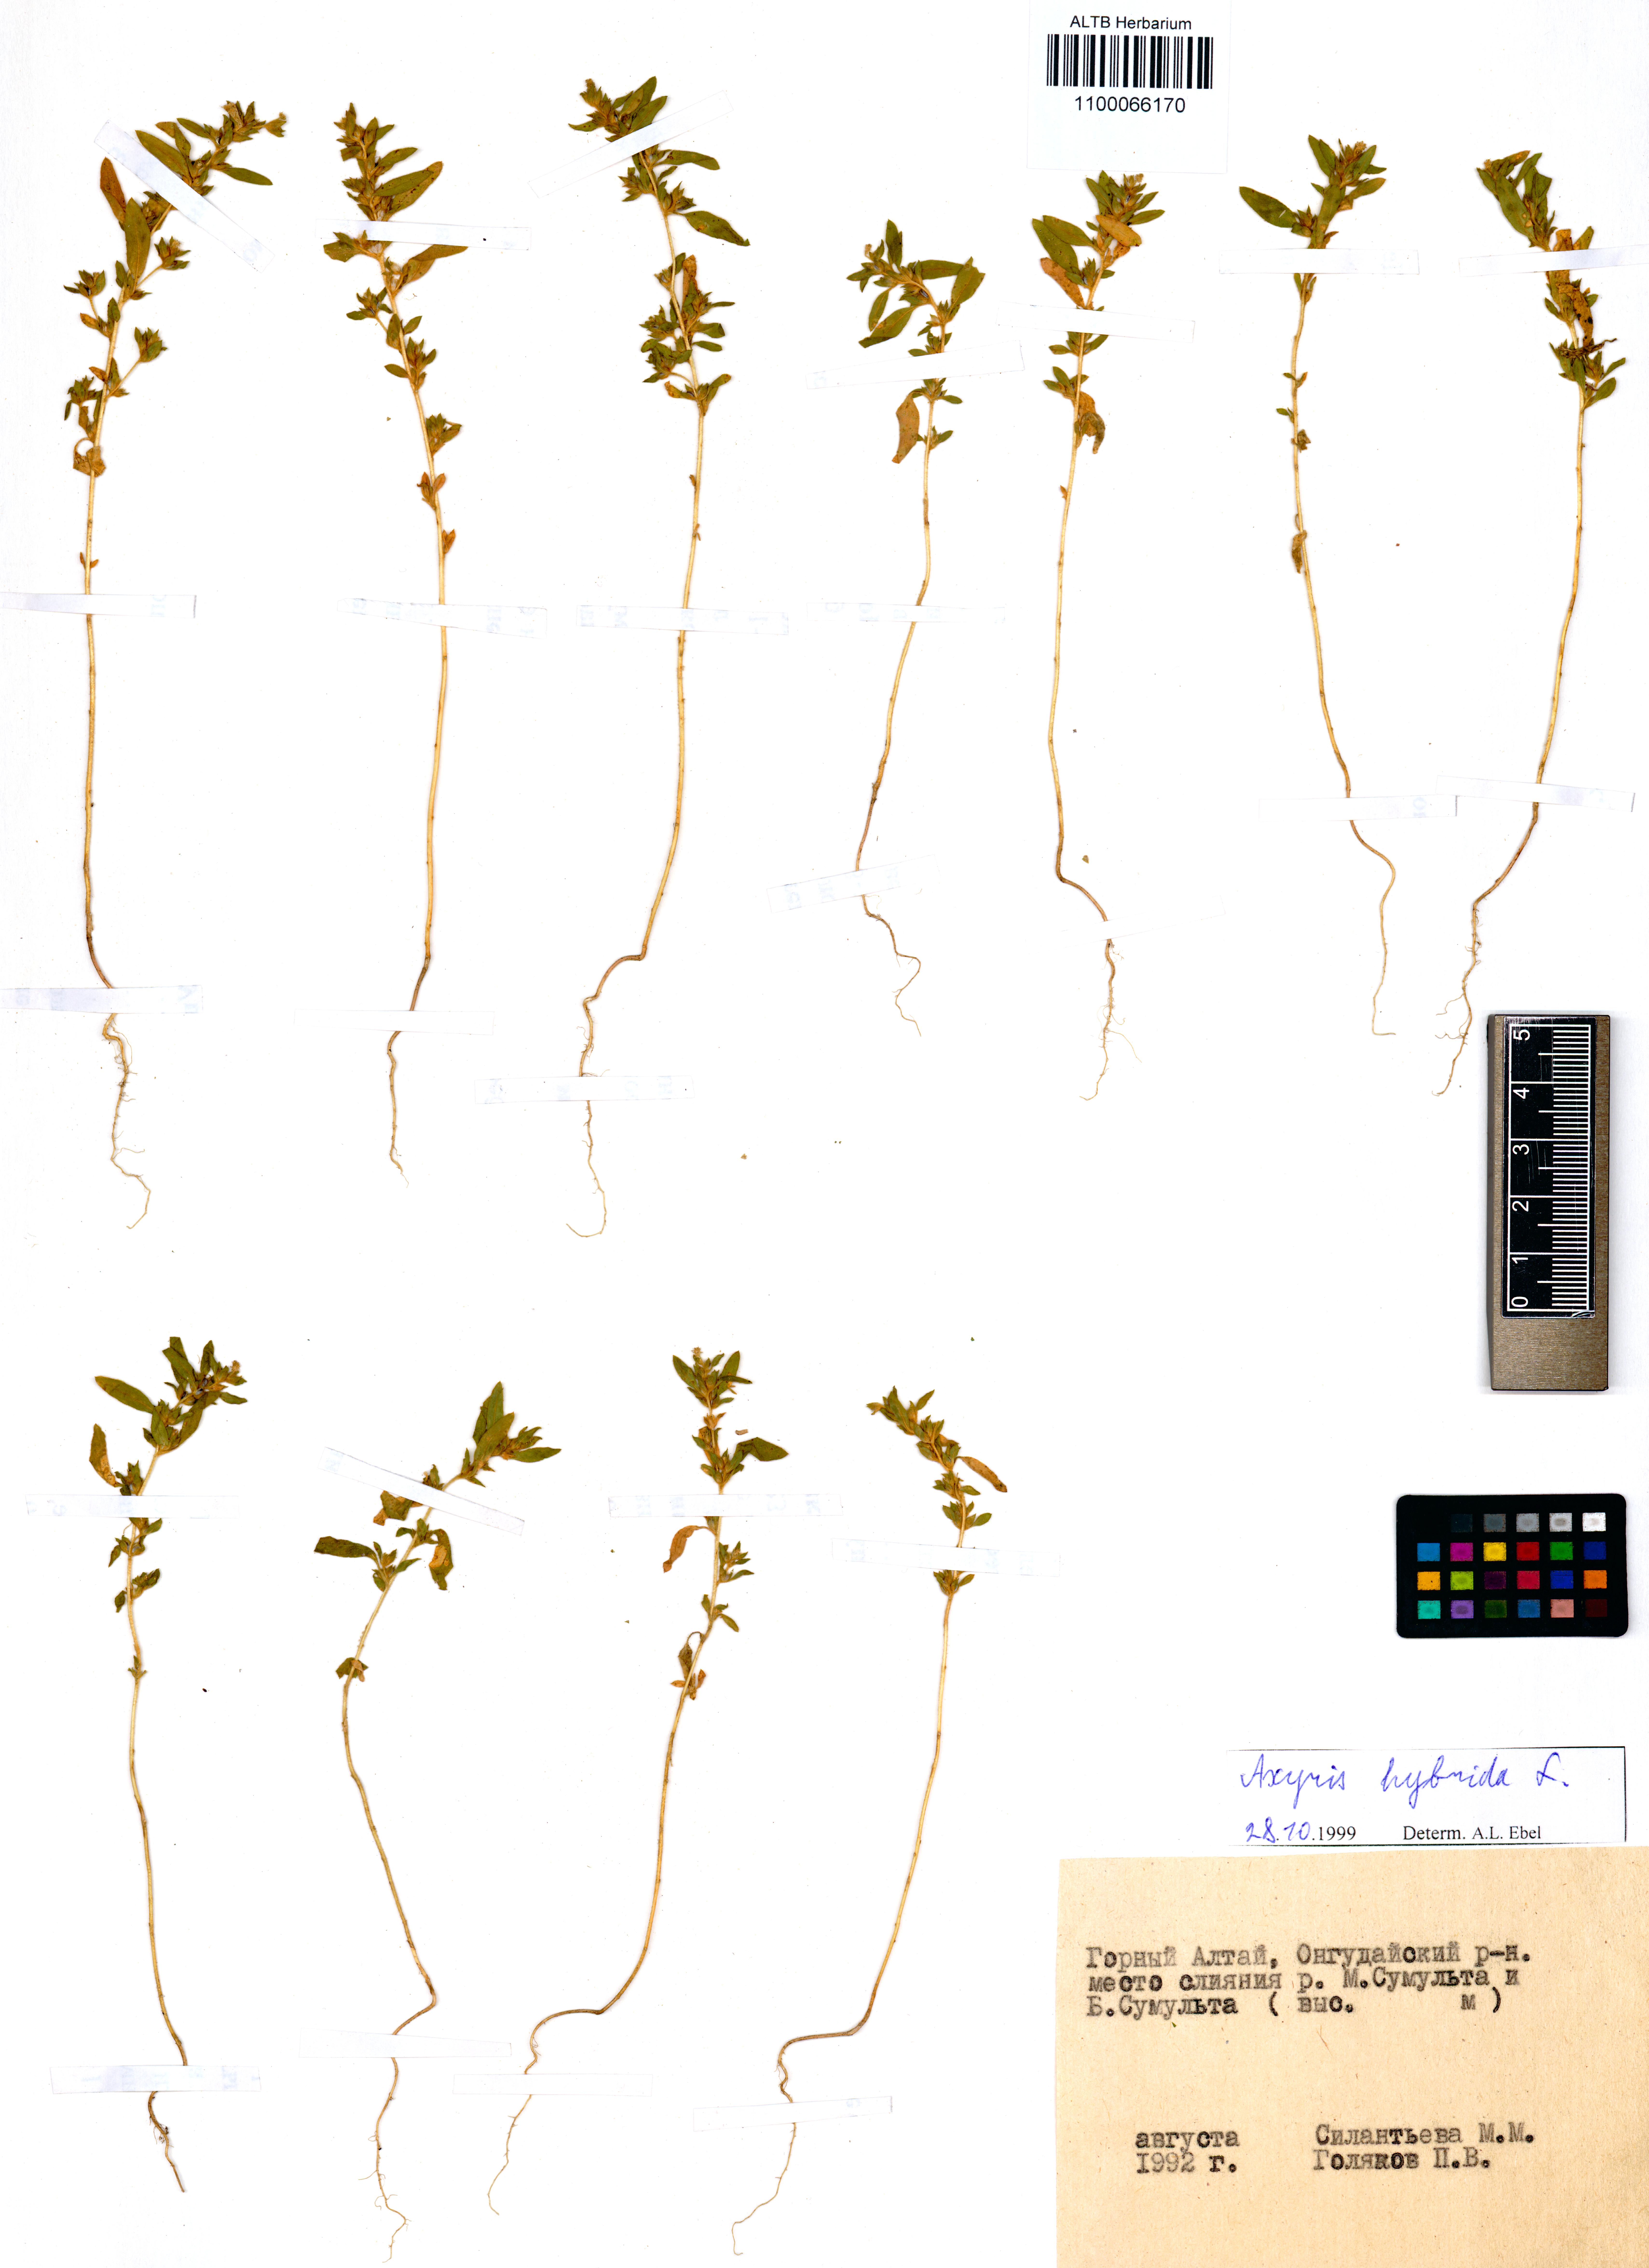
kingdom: Plantae
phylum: Tracheophyta
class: Magnoliopsida
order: Caryophyllales
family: Amaranthaceae
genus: Axyris
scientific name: Axyris hybrida
